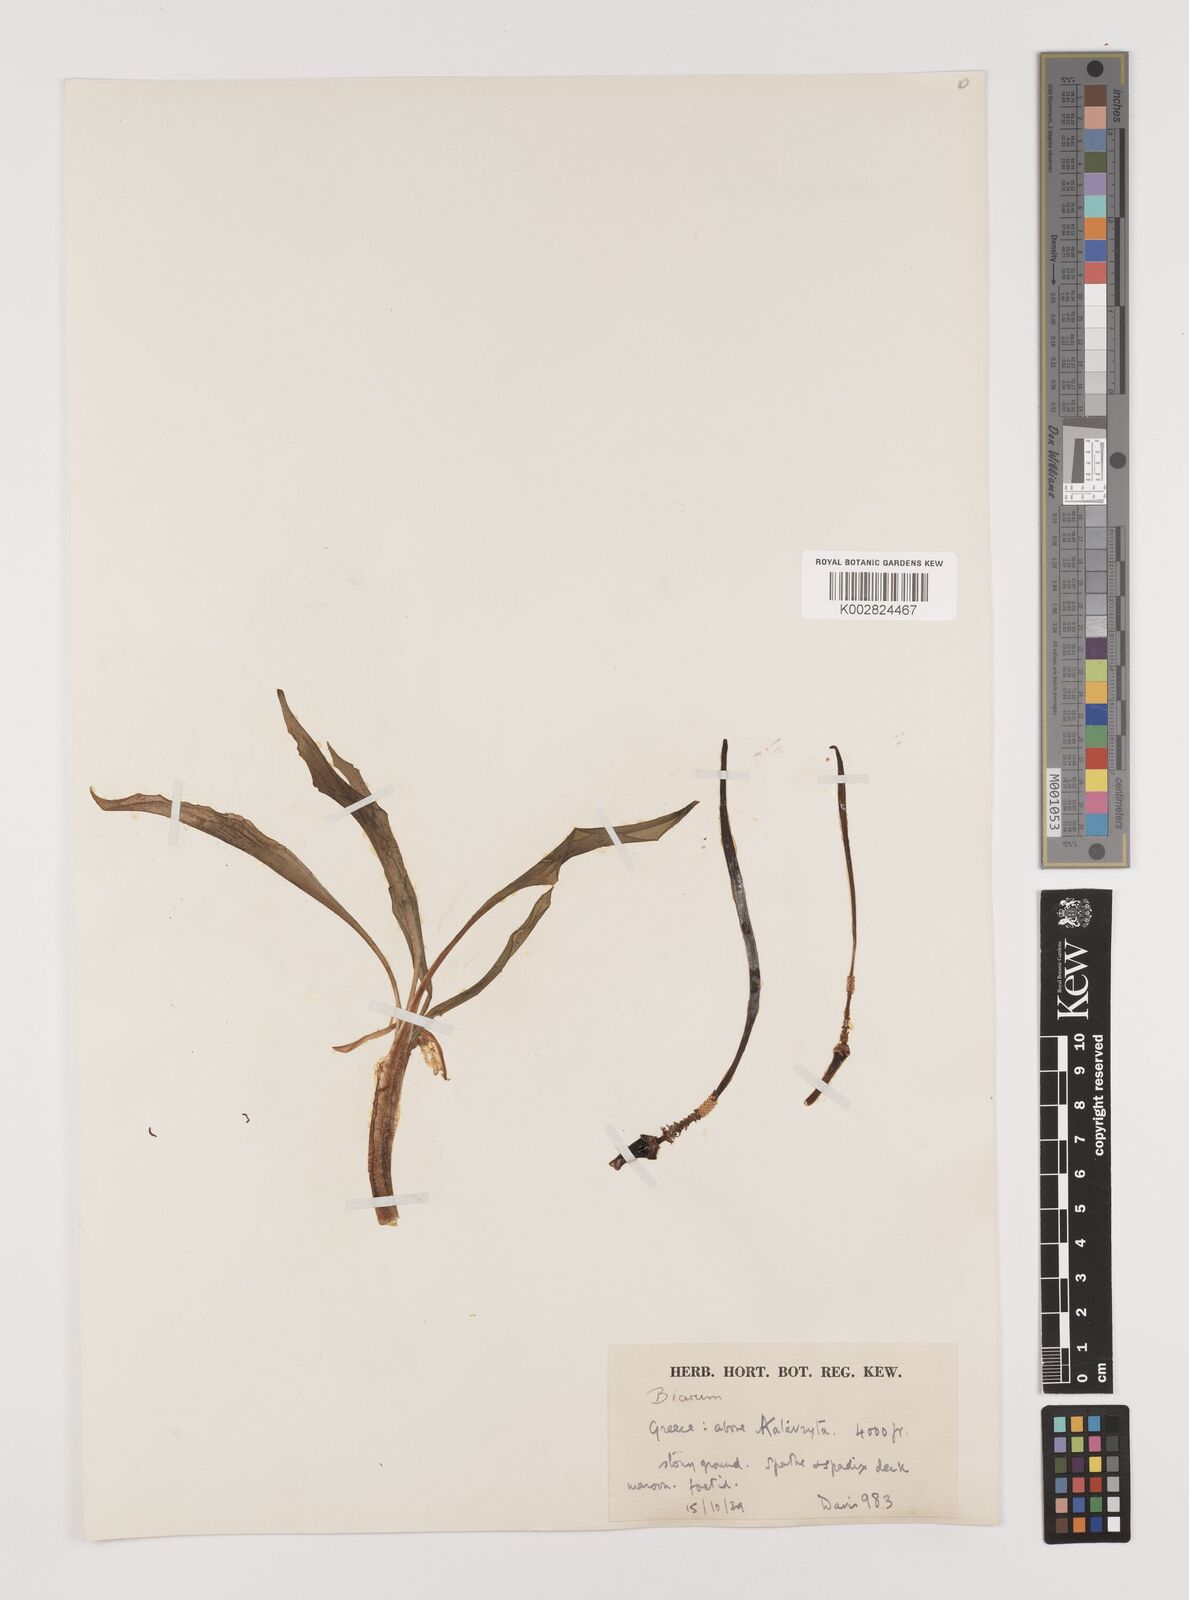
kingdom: Plantae
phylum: Tracheophyta
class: Liliopsida
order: Alismatales
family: Araceae
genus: Biarum
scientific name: Biarum tenuifolium
